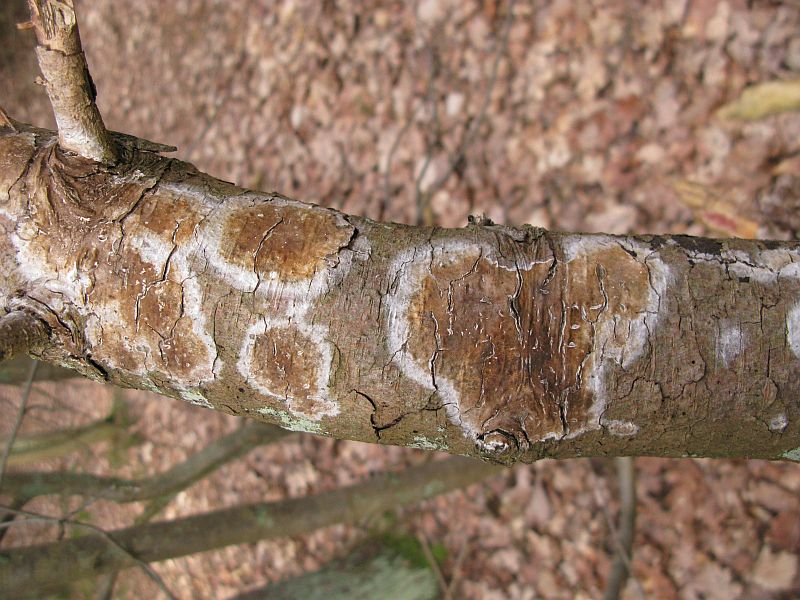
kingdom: Fungi
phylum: Basidiomycota
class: Agaricomycetes
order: Boletales
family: Coniophoraceae
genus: Coniophora
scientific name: Coniophora puteana
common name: gul tømmersvamp
